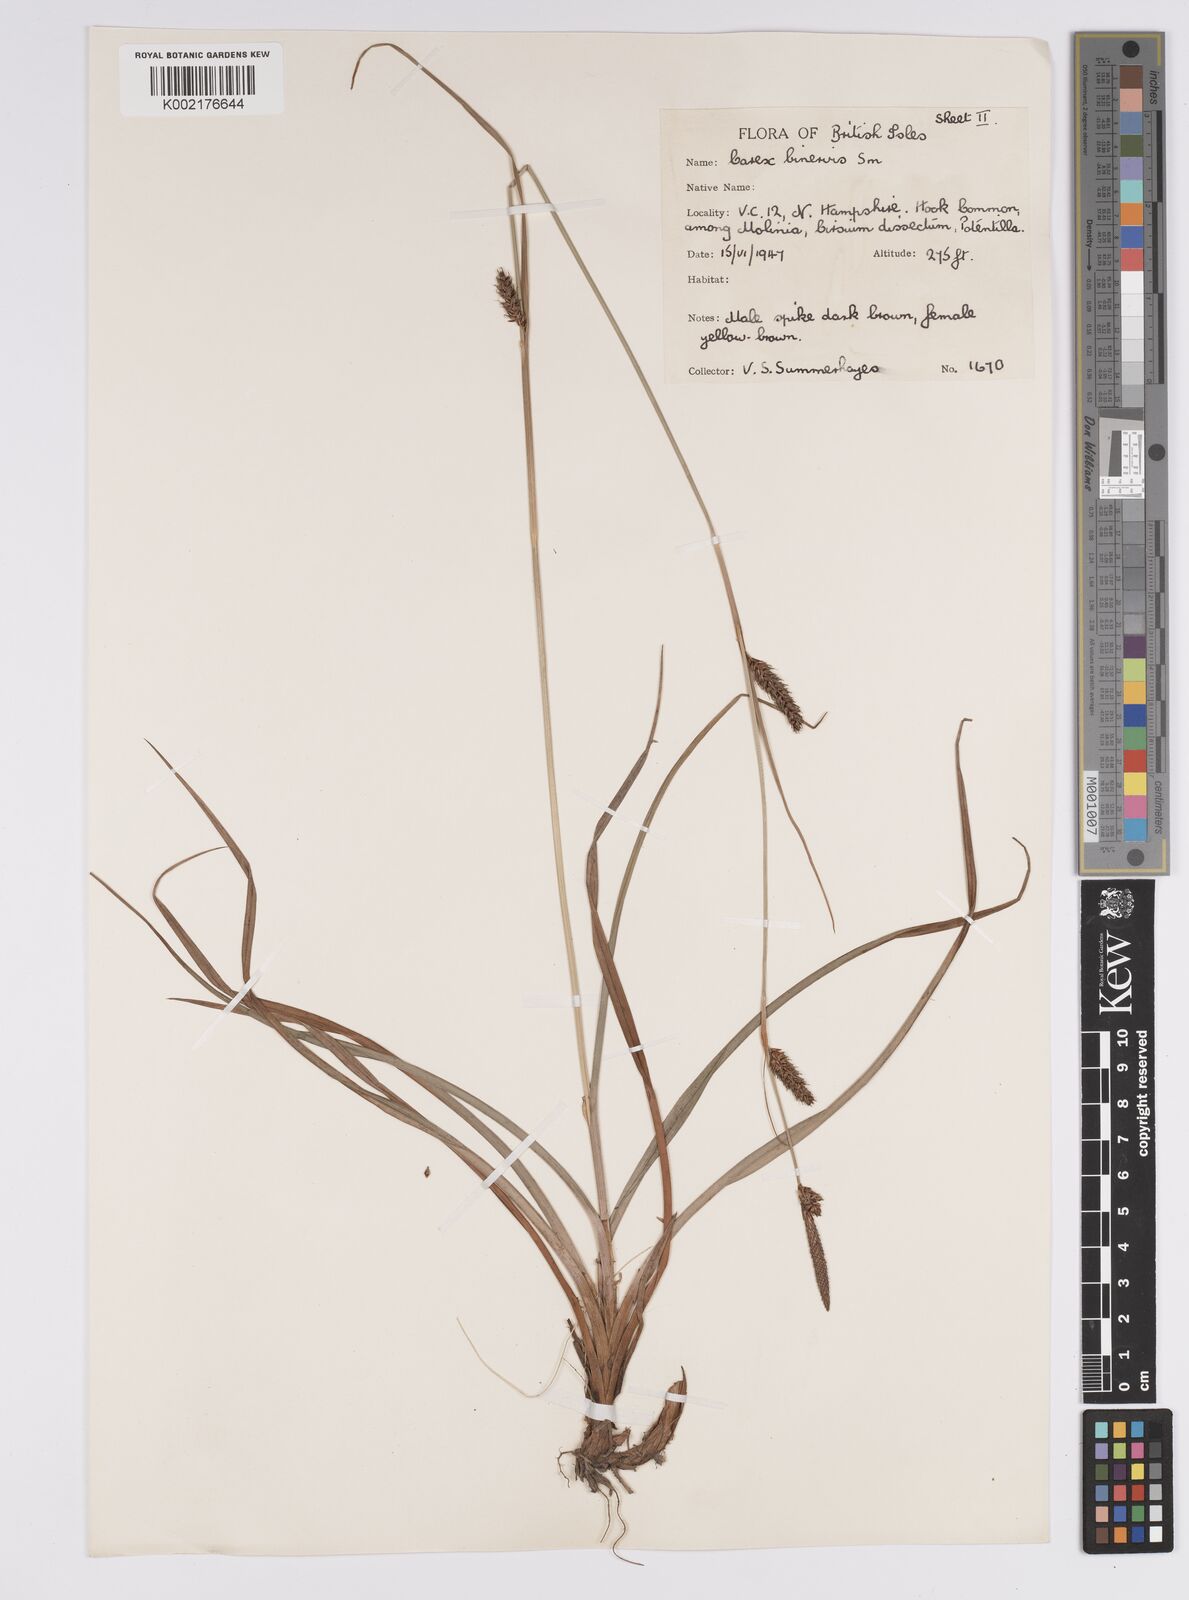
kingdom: Plantae
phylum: Tracheophyta
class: Liliopsida
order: Poales
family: Cyperaceae
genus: Carex
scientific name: Carex binervis
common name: Green-ribbed sedge
